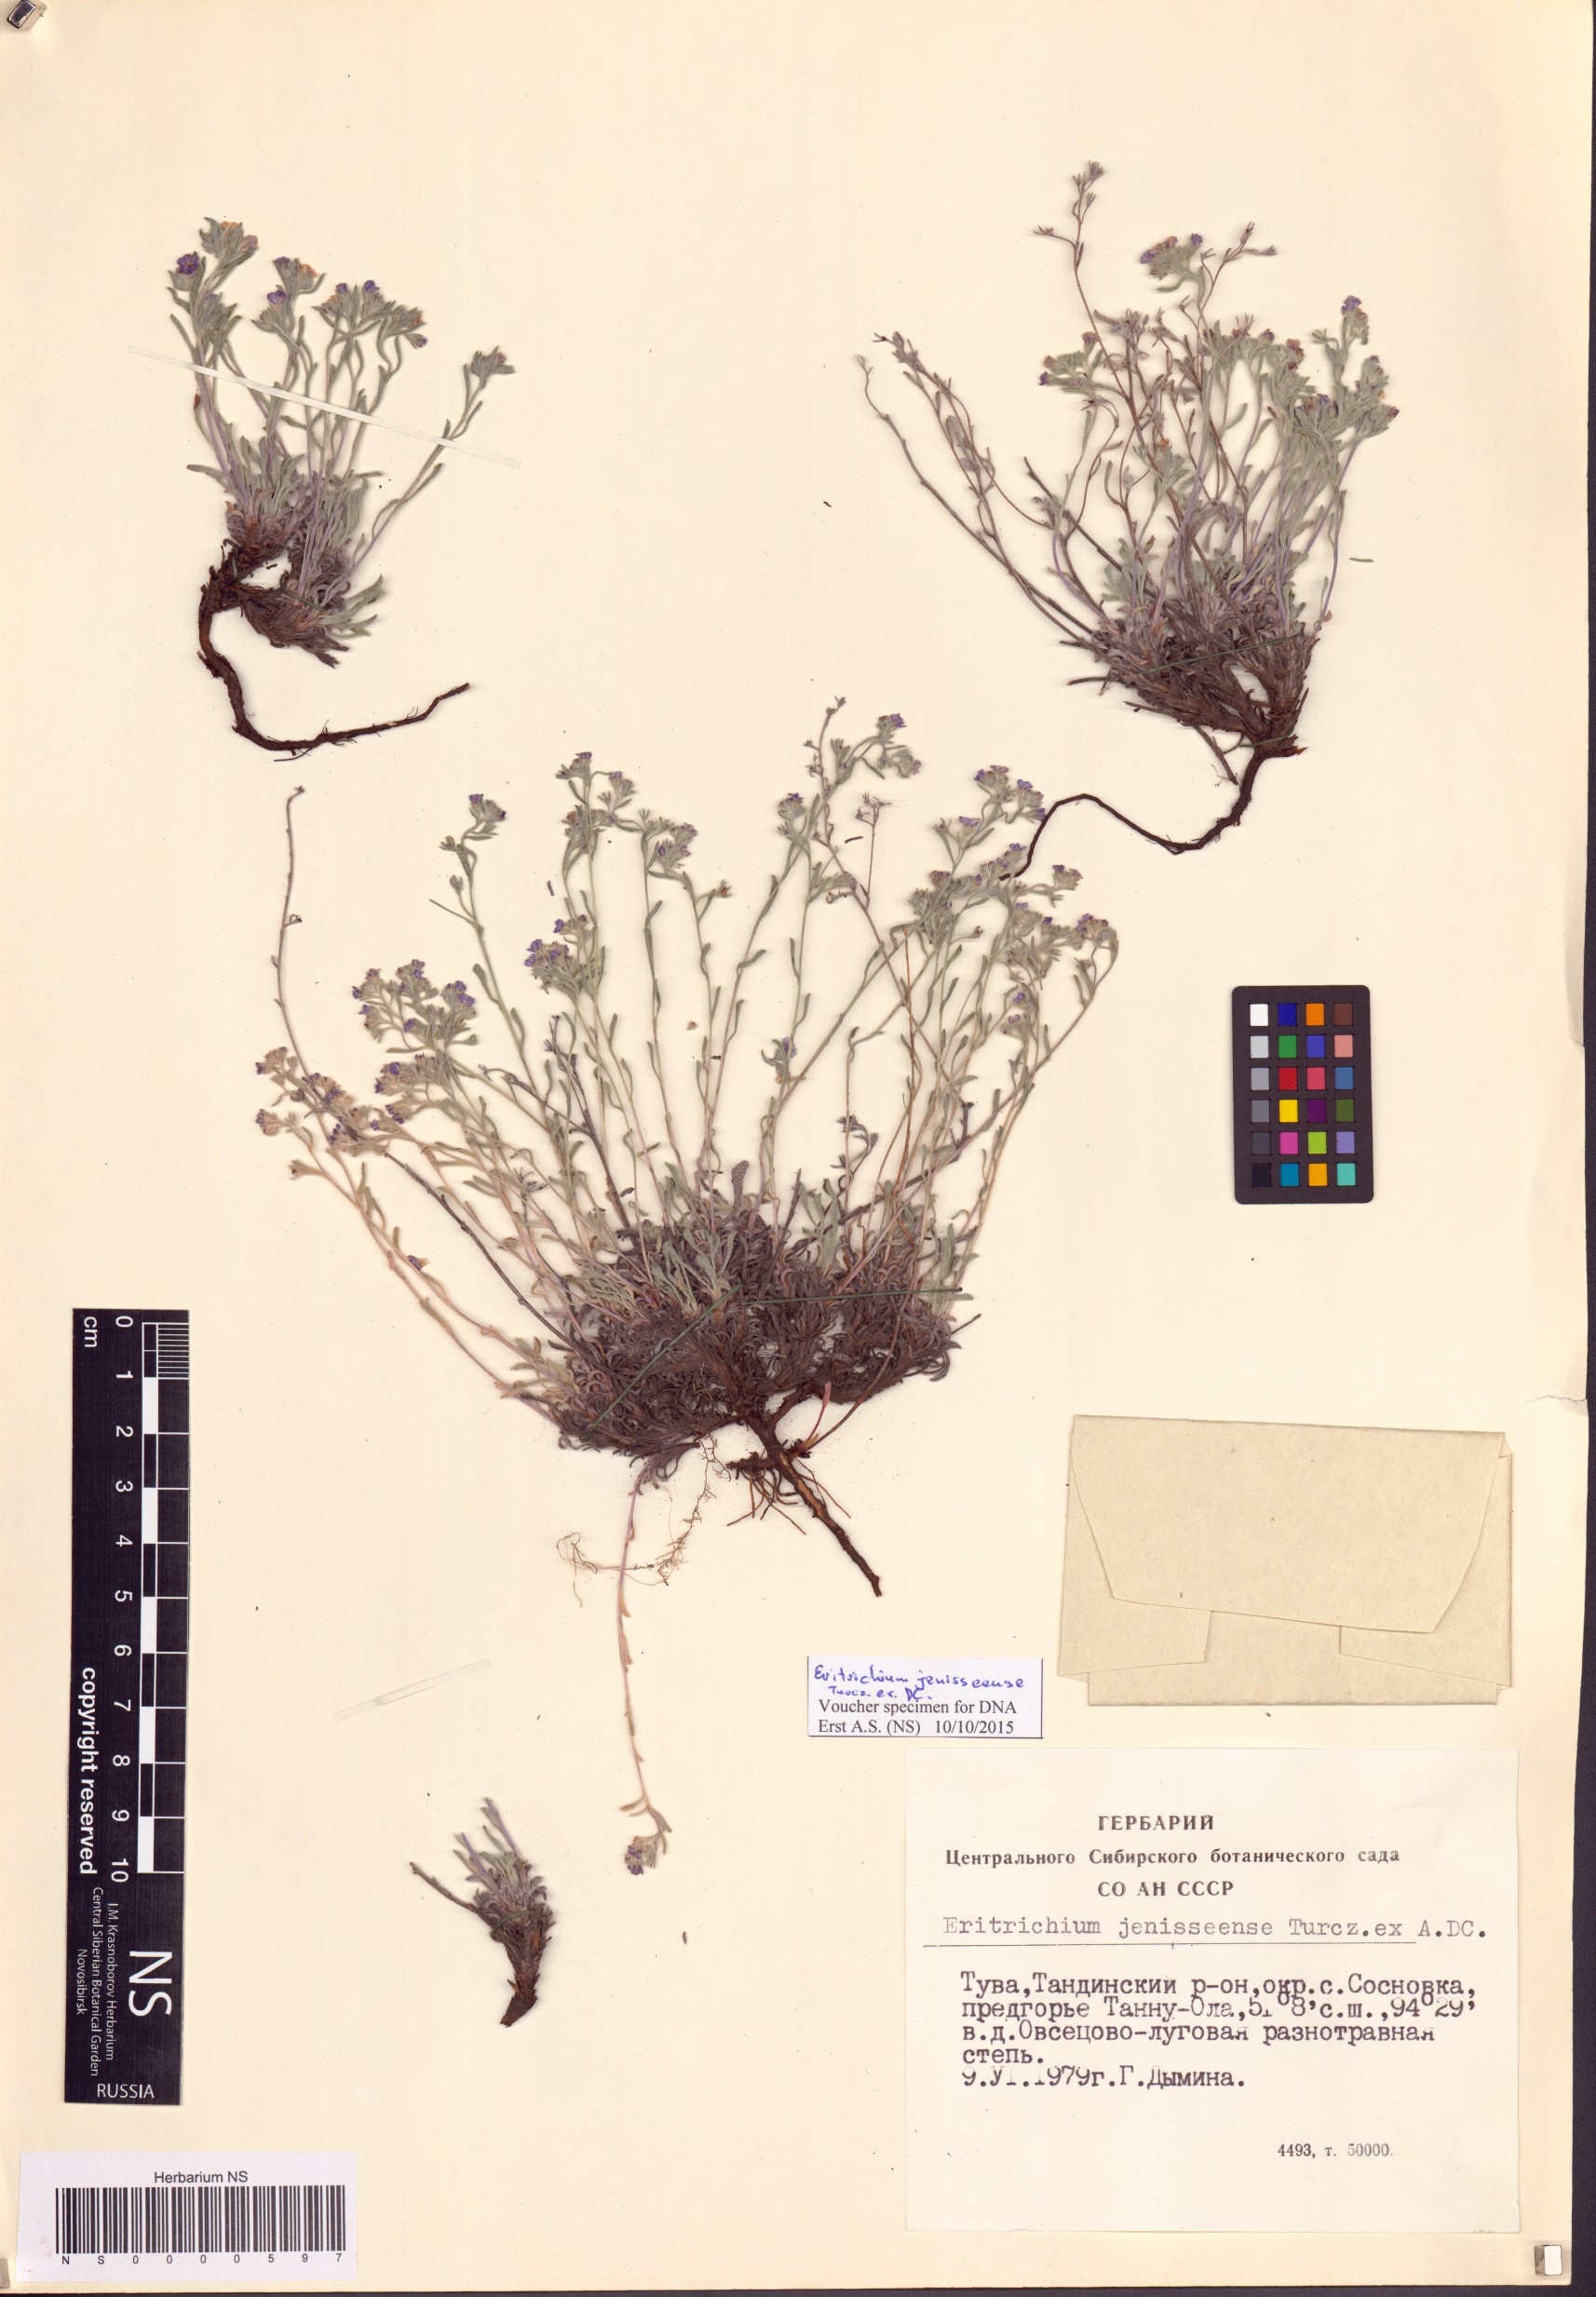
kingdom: Plantae
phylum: Tracheophyta
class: Magnoliopsida
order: Boraginales
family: Boraginaceae
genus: Eritrichium
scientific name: Eritrichium jenisseense
